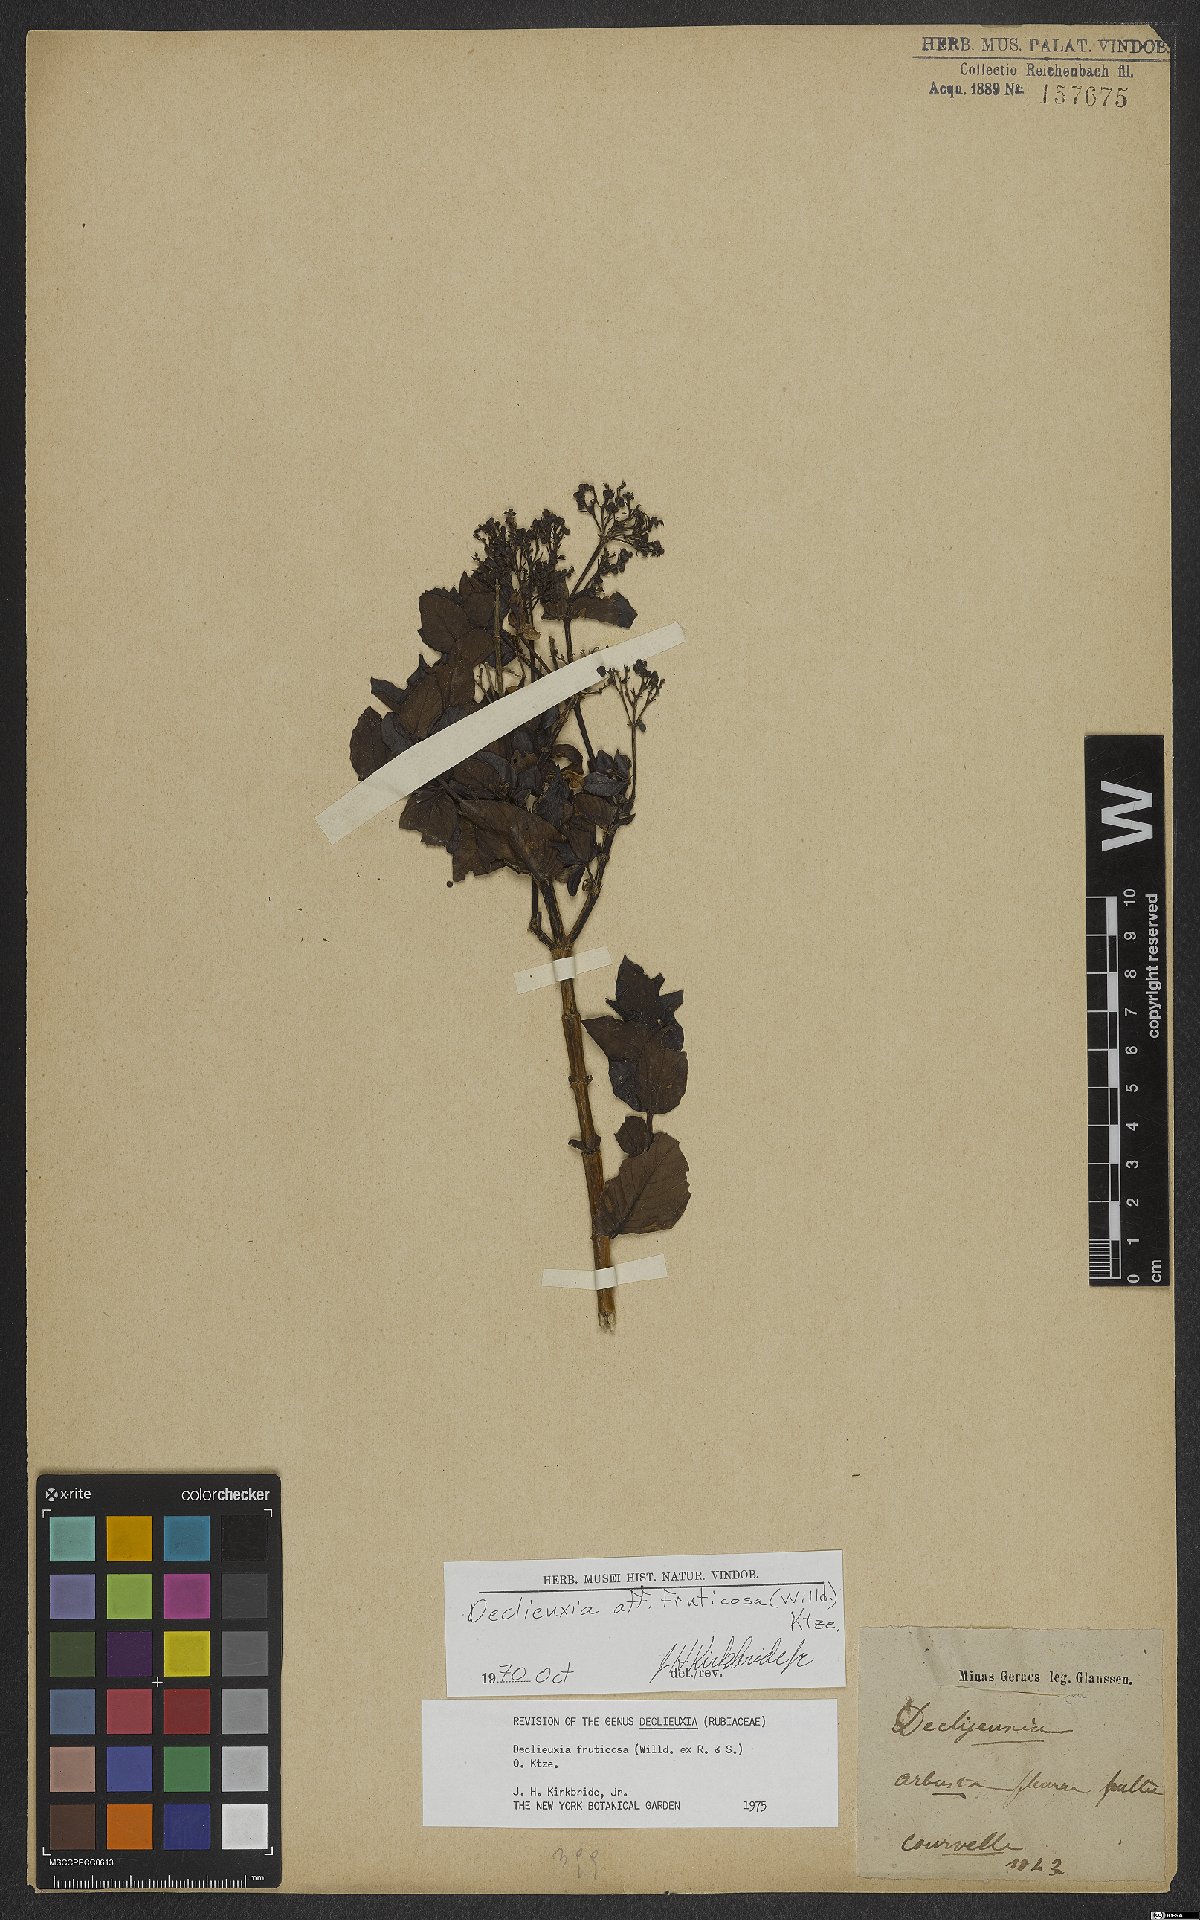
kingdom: Plantae
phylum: Tracheophyta
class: Magnoliopsida
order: Gentianales
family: Rubiaceae
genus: Declieuxia
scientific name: Declieuxia fruticosa
